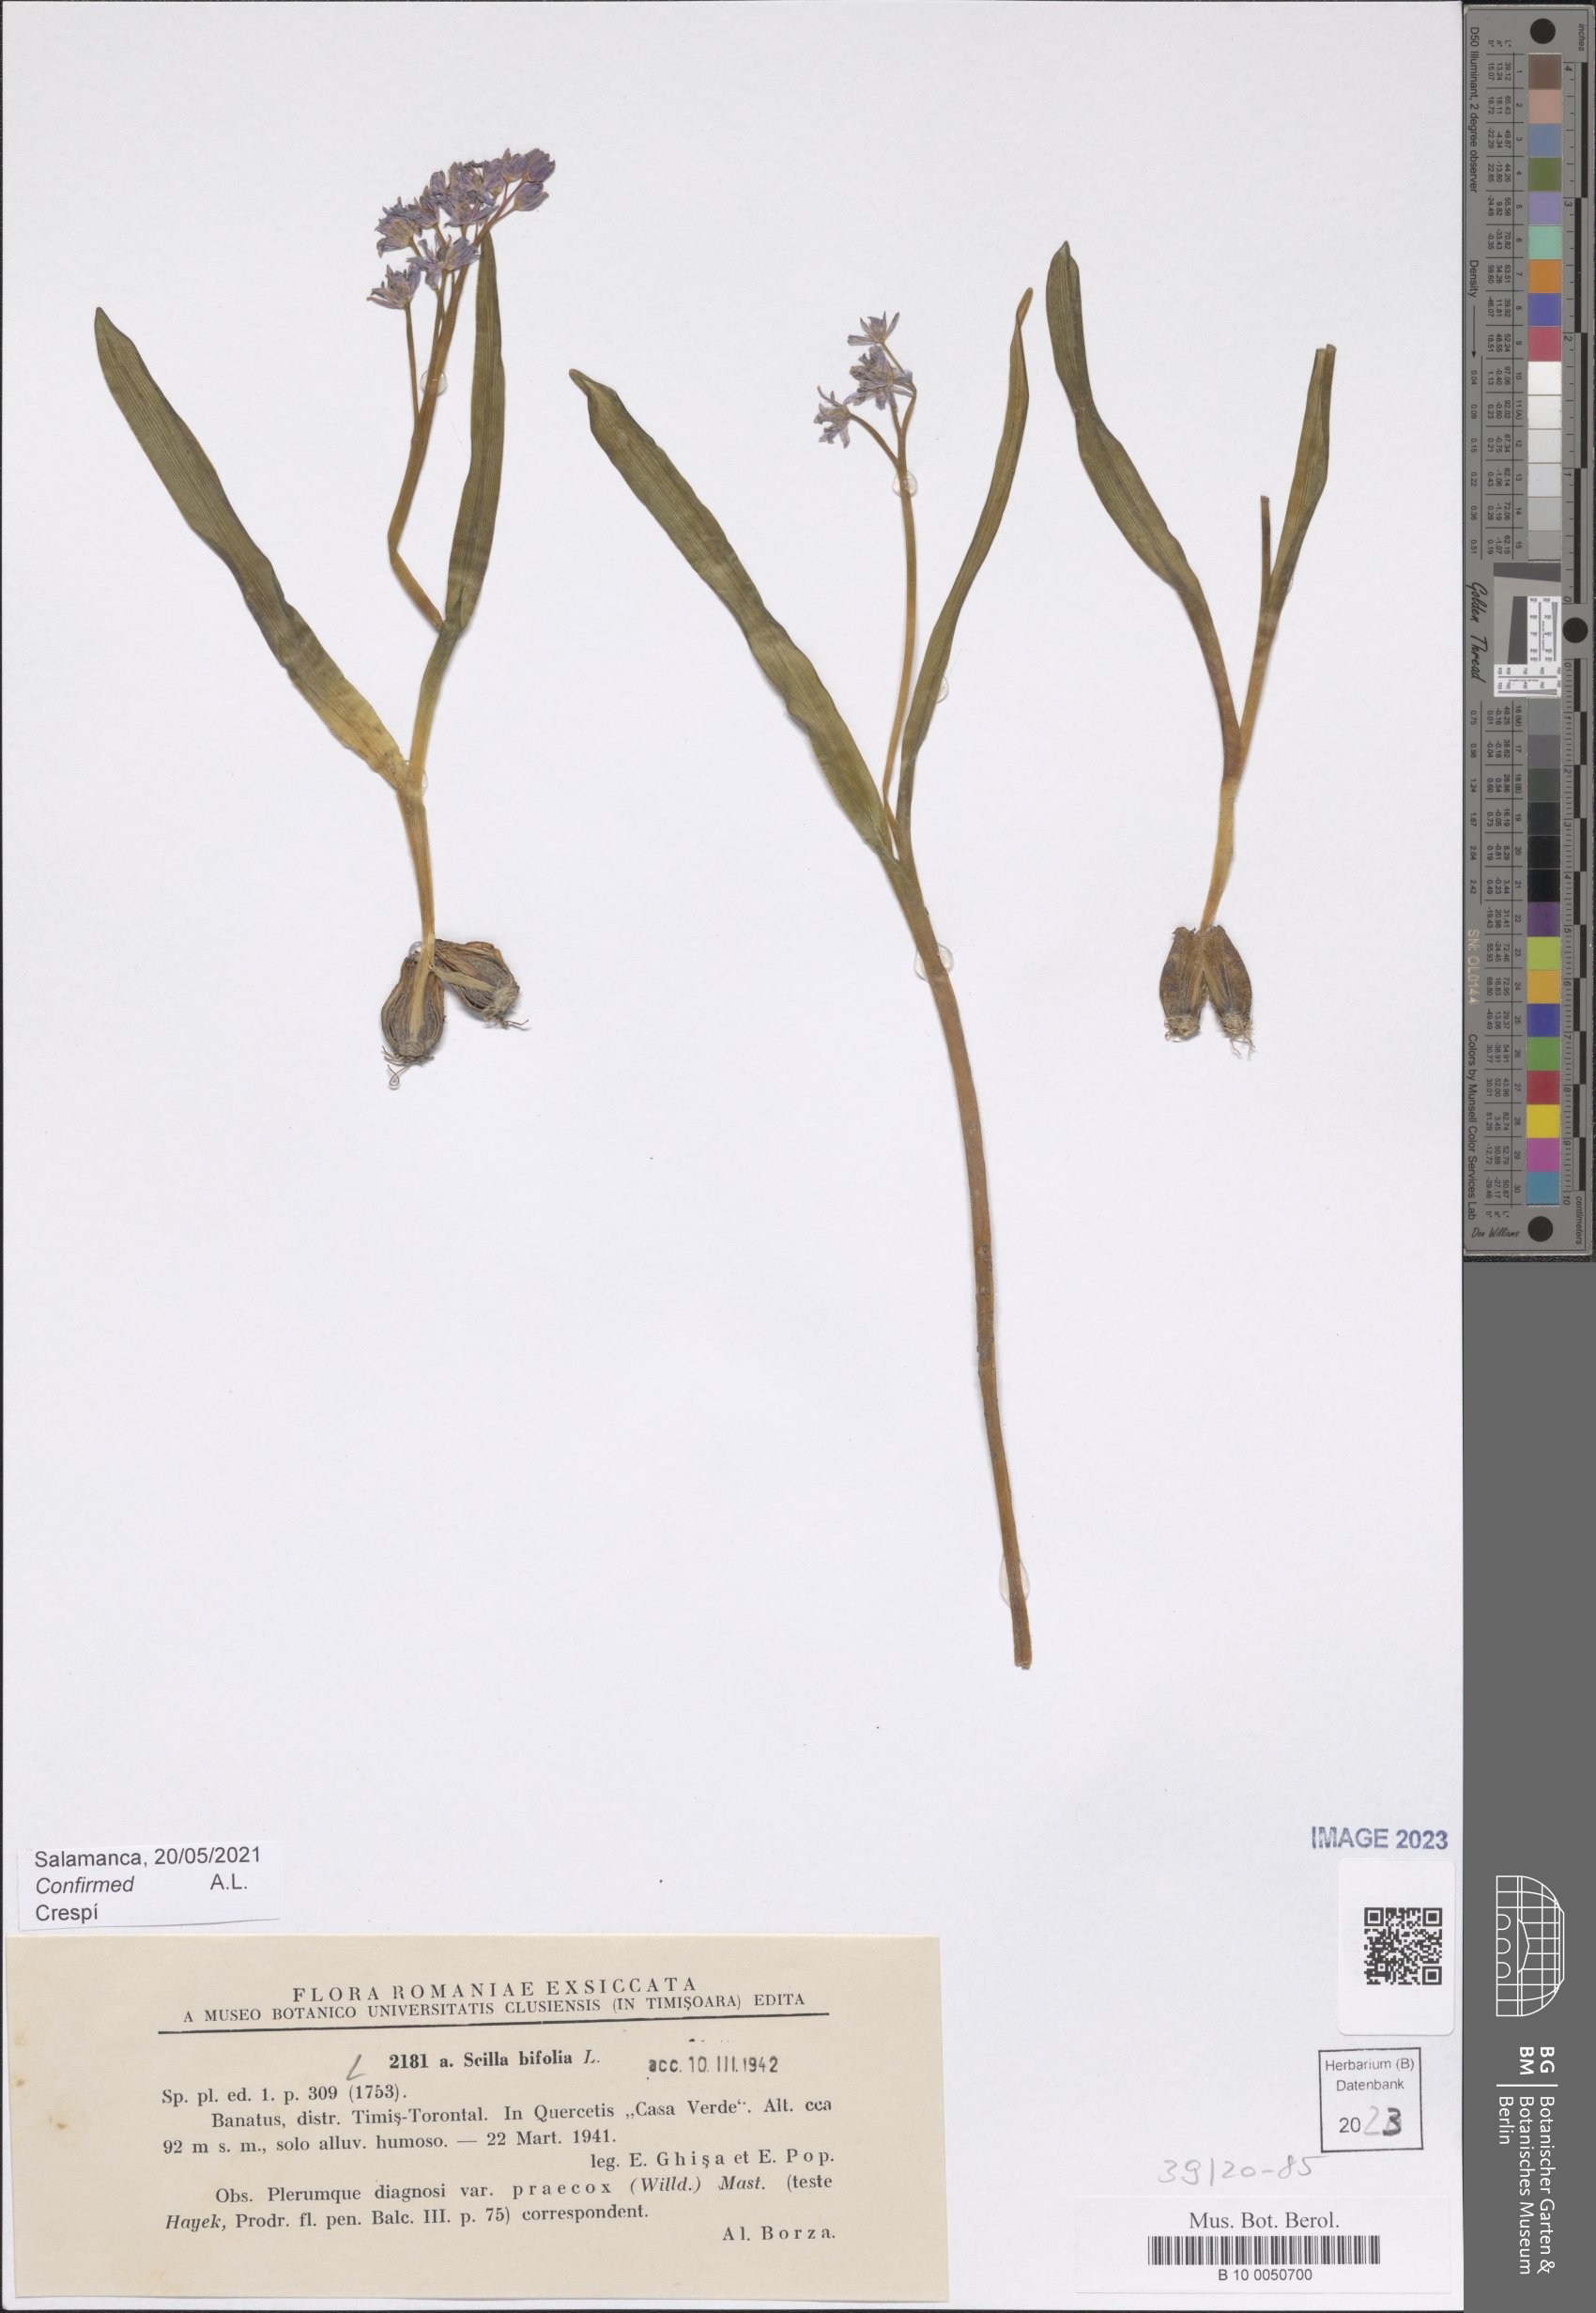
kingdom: Plantae
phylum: Tracheophyta
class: Liliopsida
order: Asparagales
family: Asparagaceae
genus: Scilla
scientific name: Scilla bifolia
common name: Alpine squill
